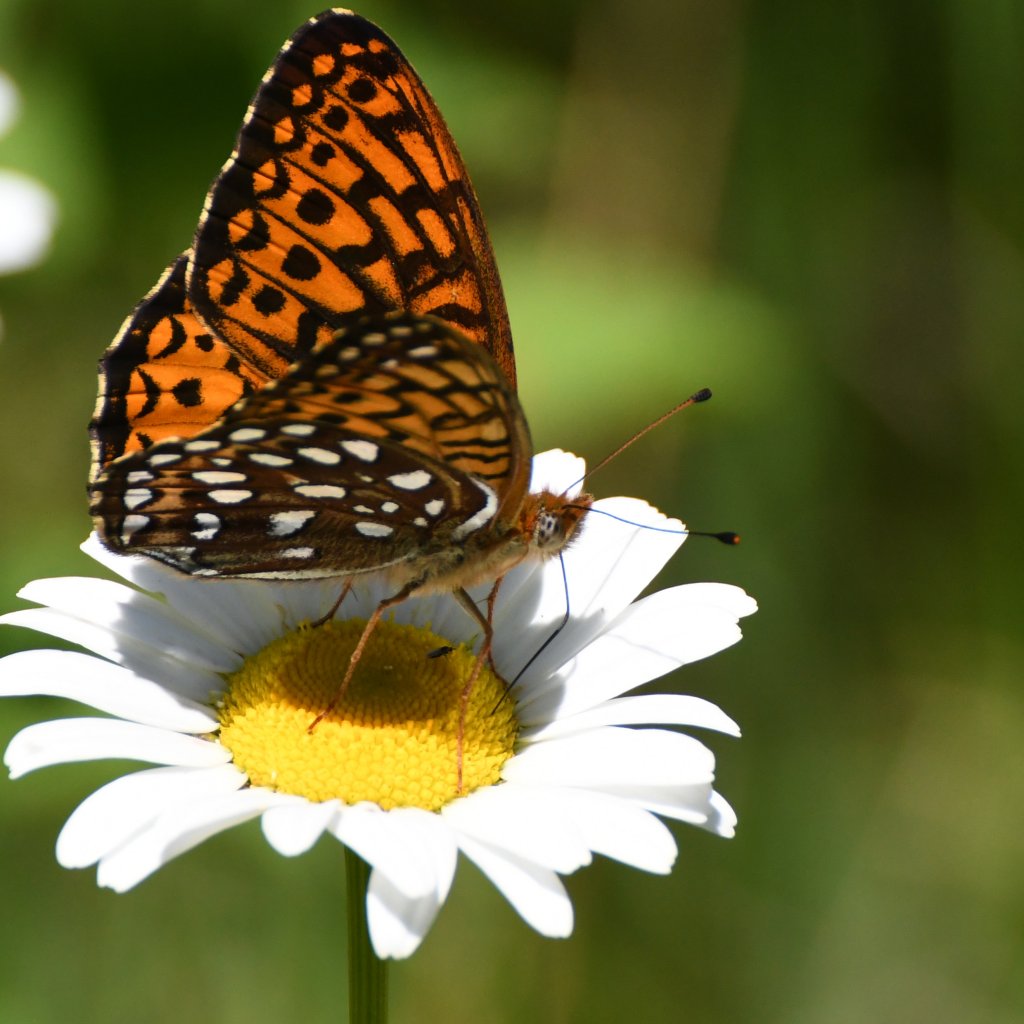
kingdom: Animalia
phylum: Arthropoda
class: Insecta
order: Lepidoptera
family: Nymphalidae
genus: Speyeria
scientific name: Speyeria atlantis
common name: Atlantis Fritillary
